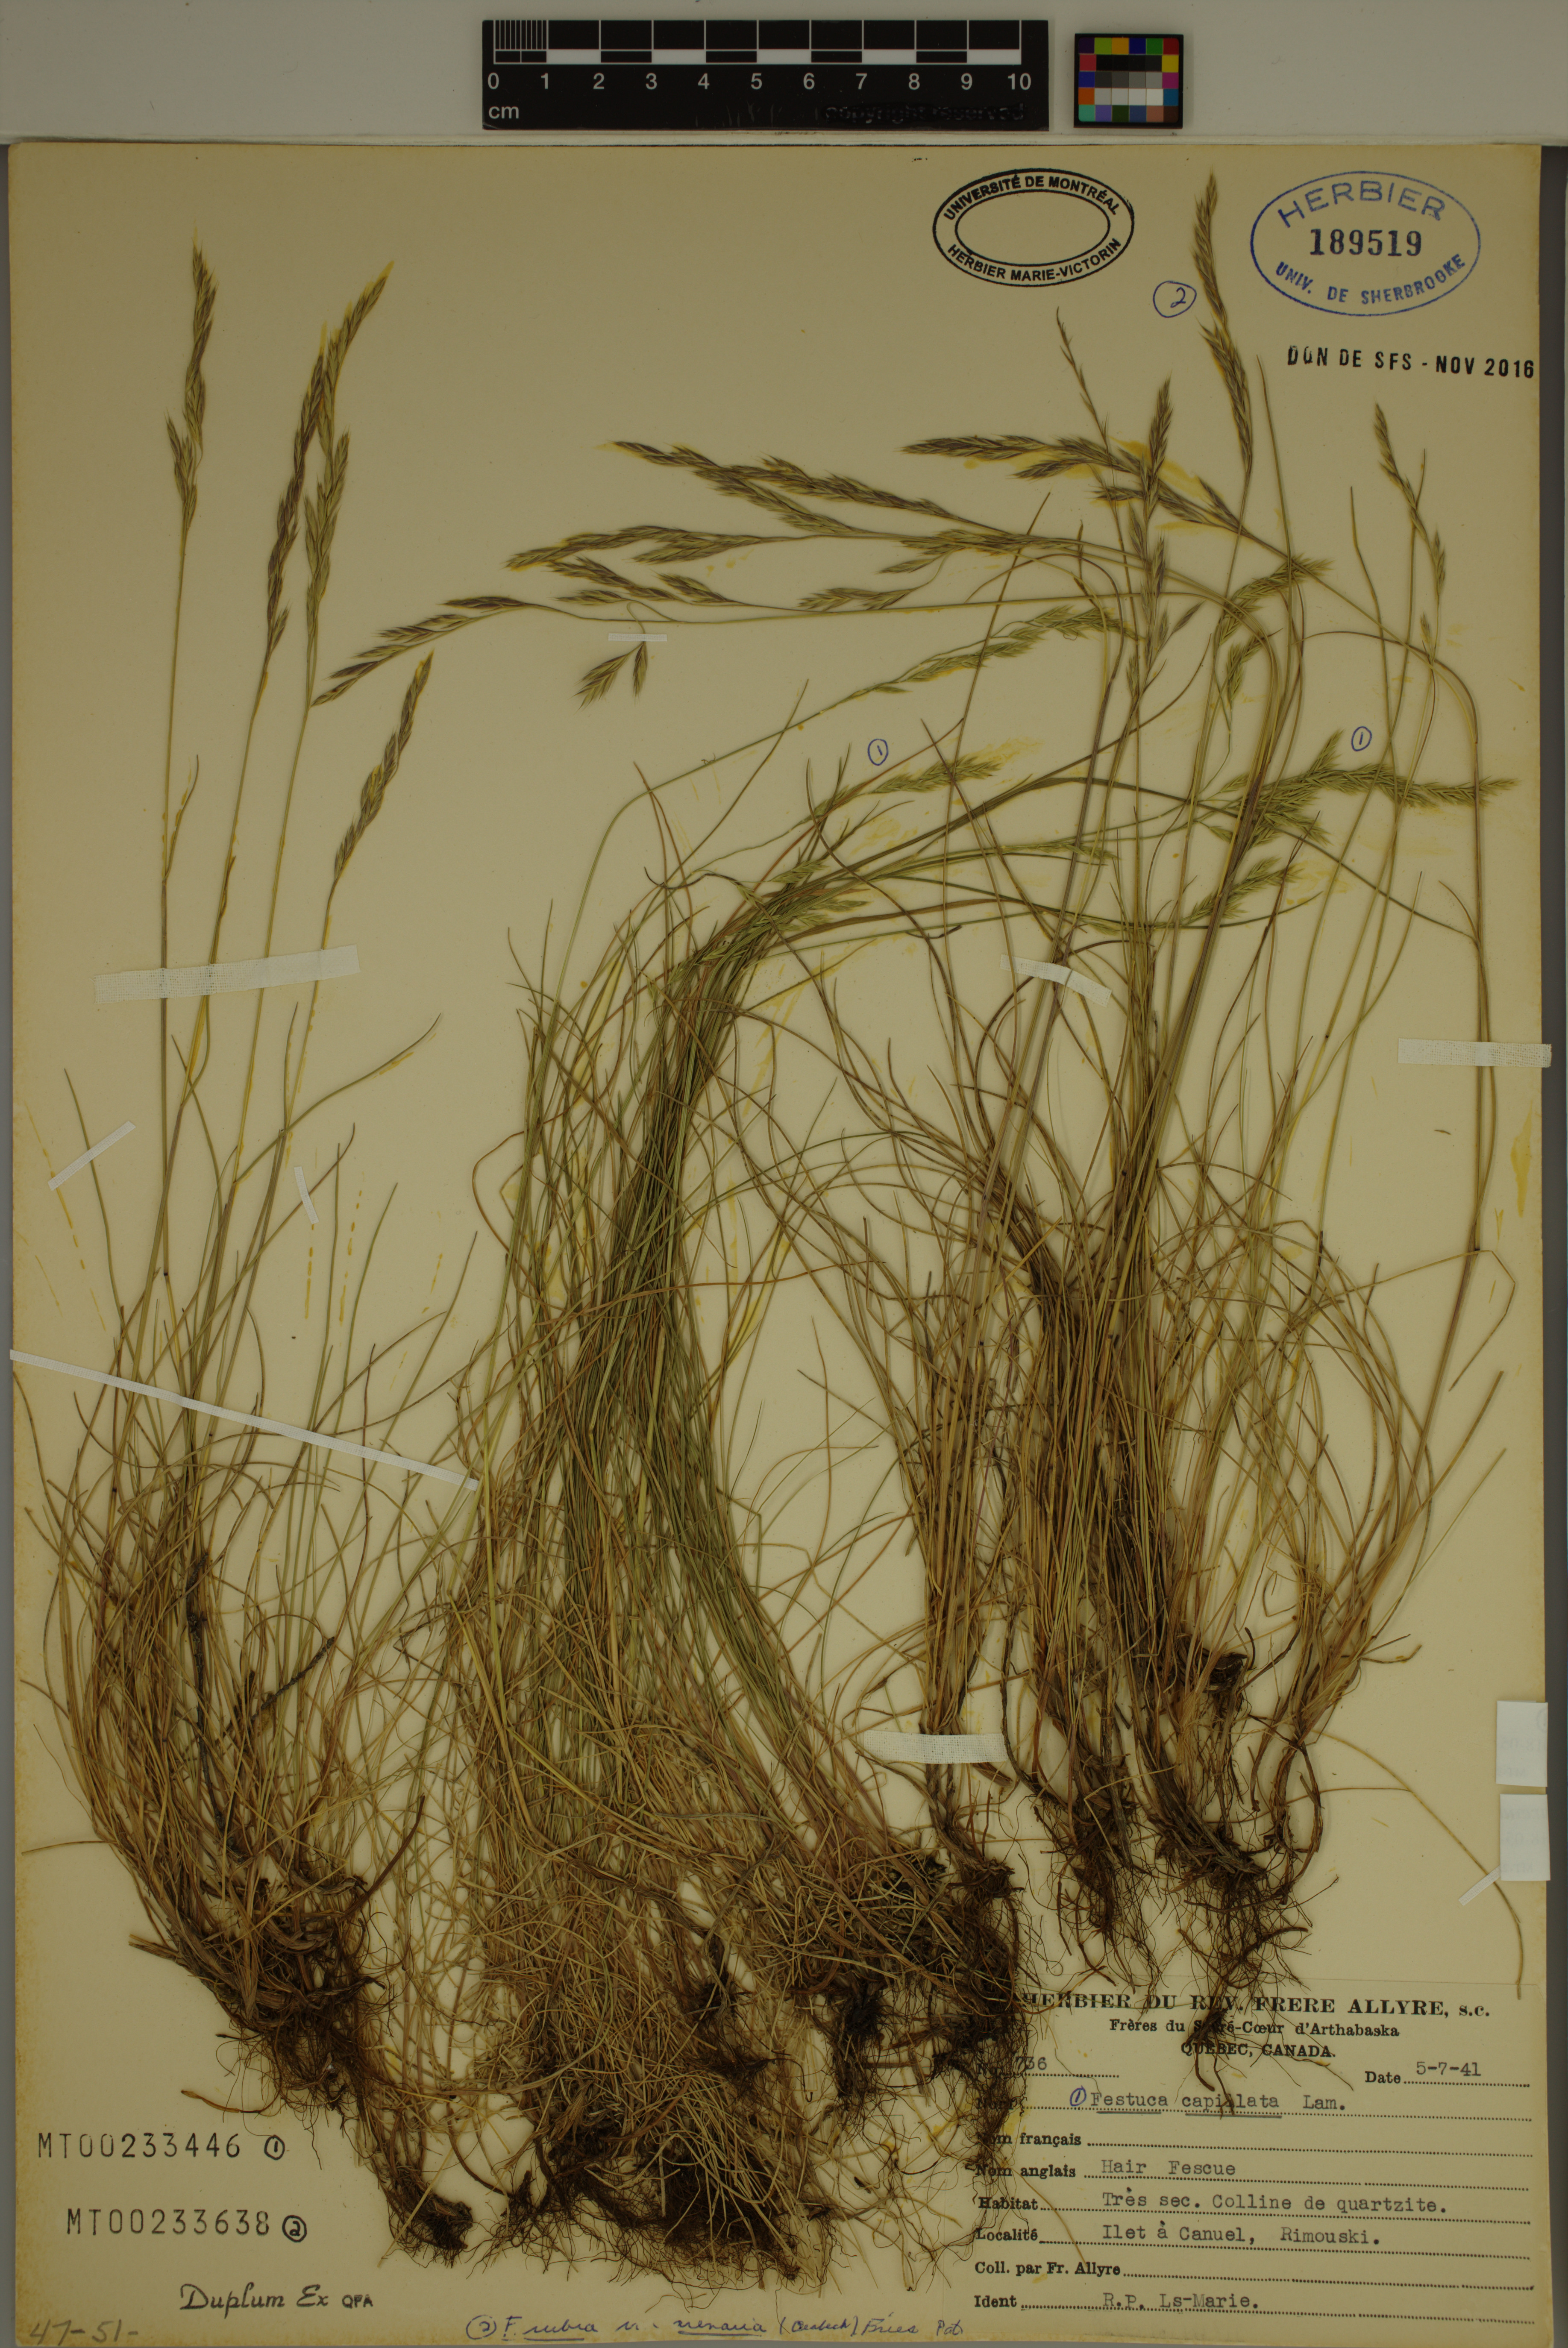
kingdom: Plantae
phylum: Tracheophyta
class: Liliopsida
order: Poales
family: Poaceae
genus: Festuca
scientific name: Festuca rubra
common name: Red fescue
